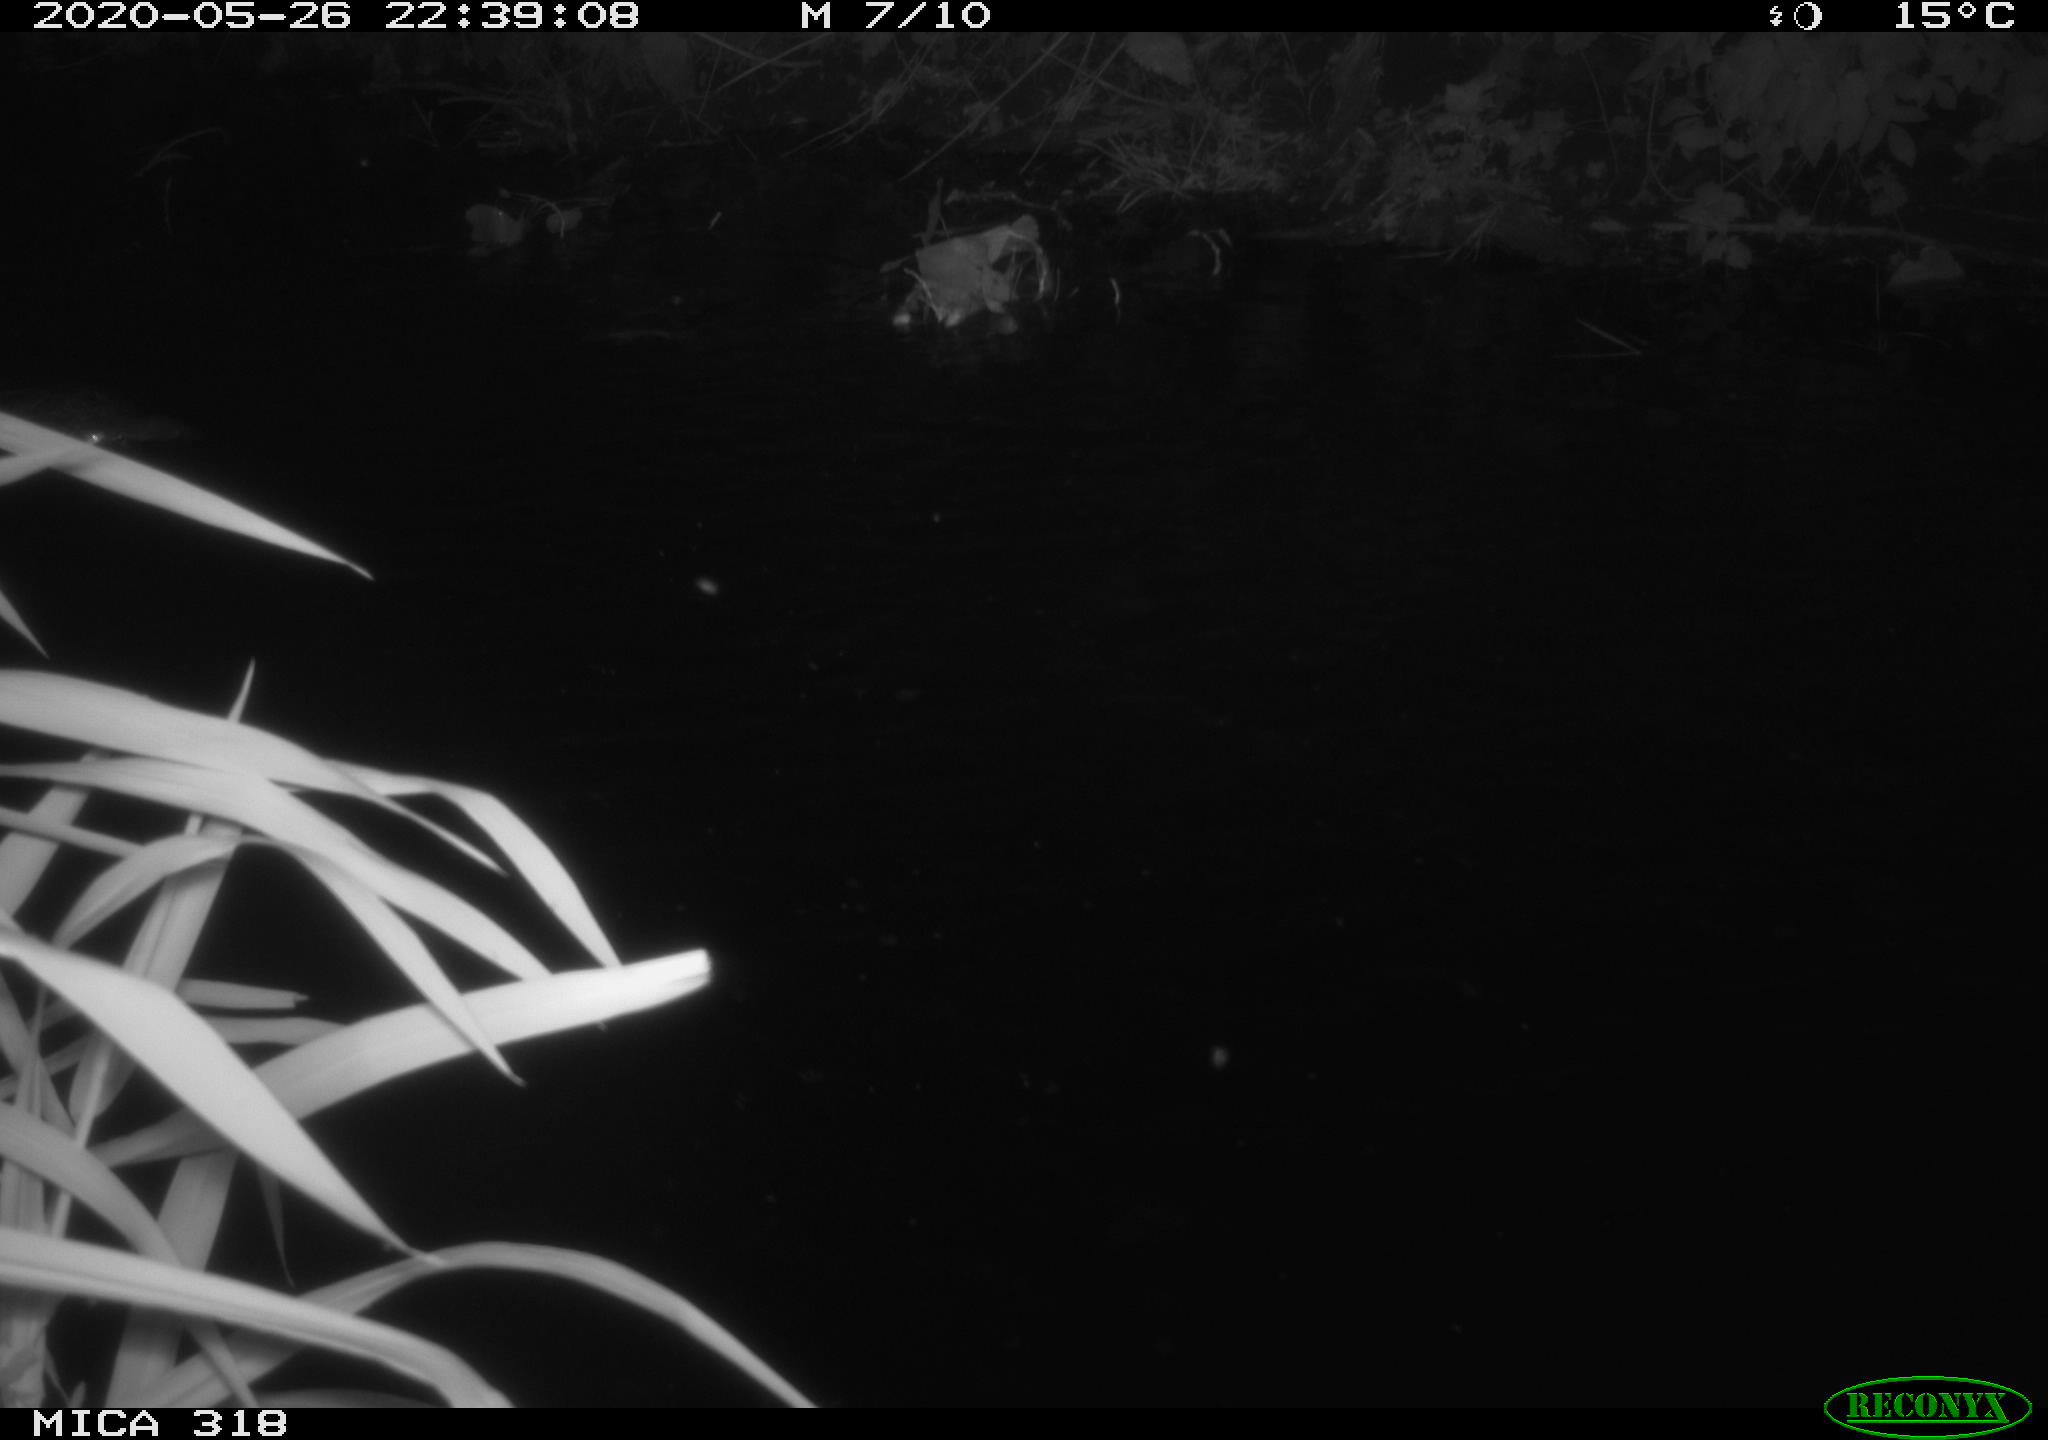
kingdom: Animalia
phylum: Chordata
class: Aves
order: Pelecaniformes
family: Ardeidae
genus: Ardea
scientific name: Ardea cinerea
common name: Grey heron
